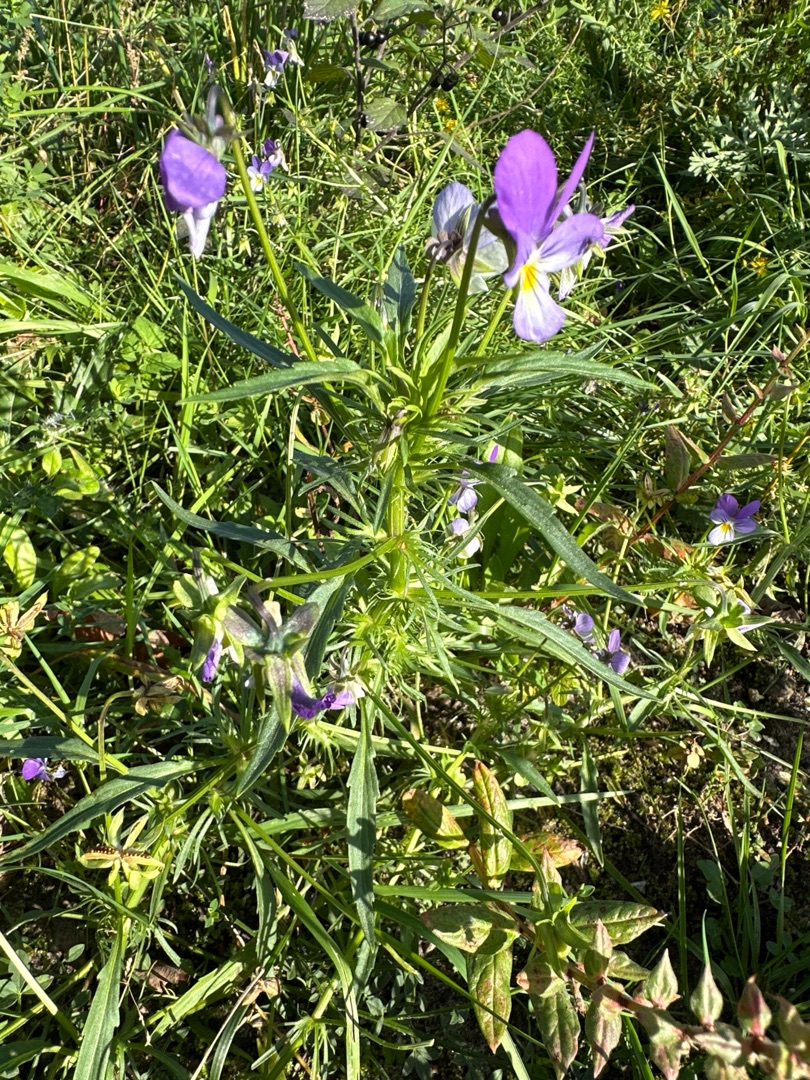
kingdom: Plantae
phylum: Tracheophyta
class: Magnoliopsida
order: Malpighiales
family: Violaceae
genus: Viola
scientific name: Viola tricolor
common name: Stedmoderblomst
